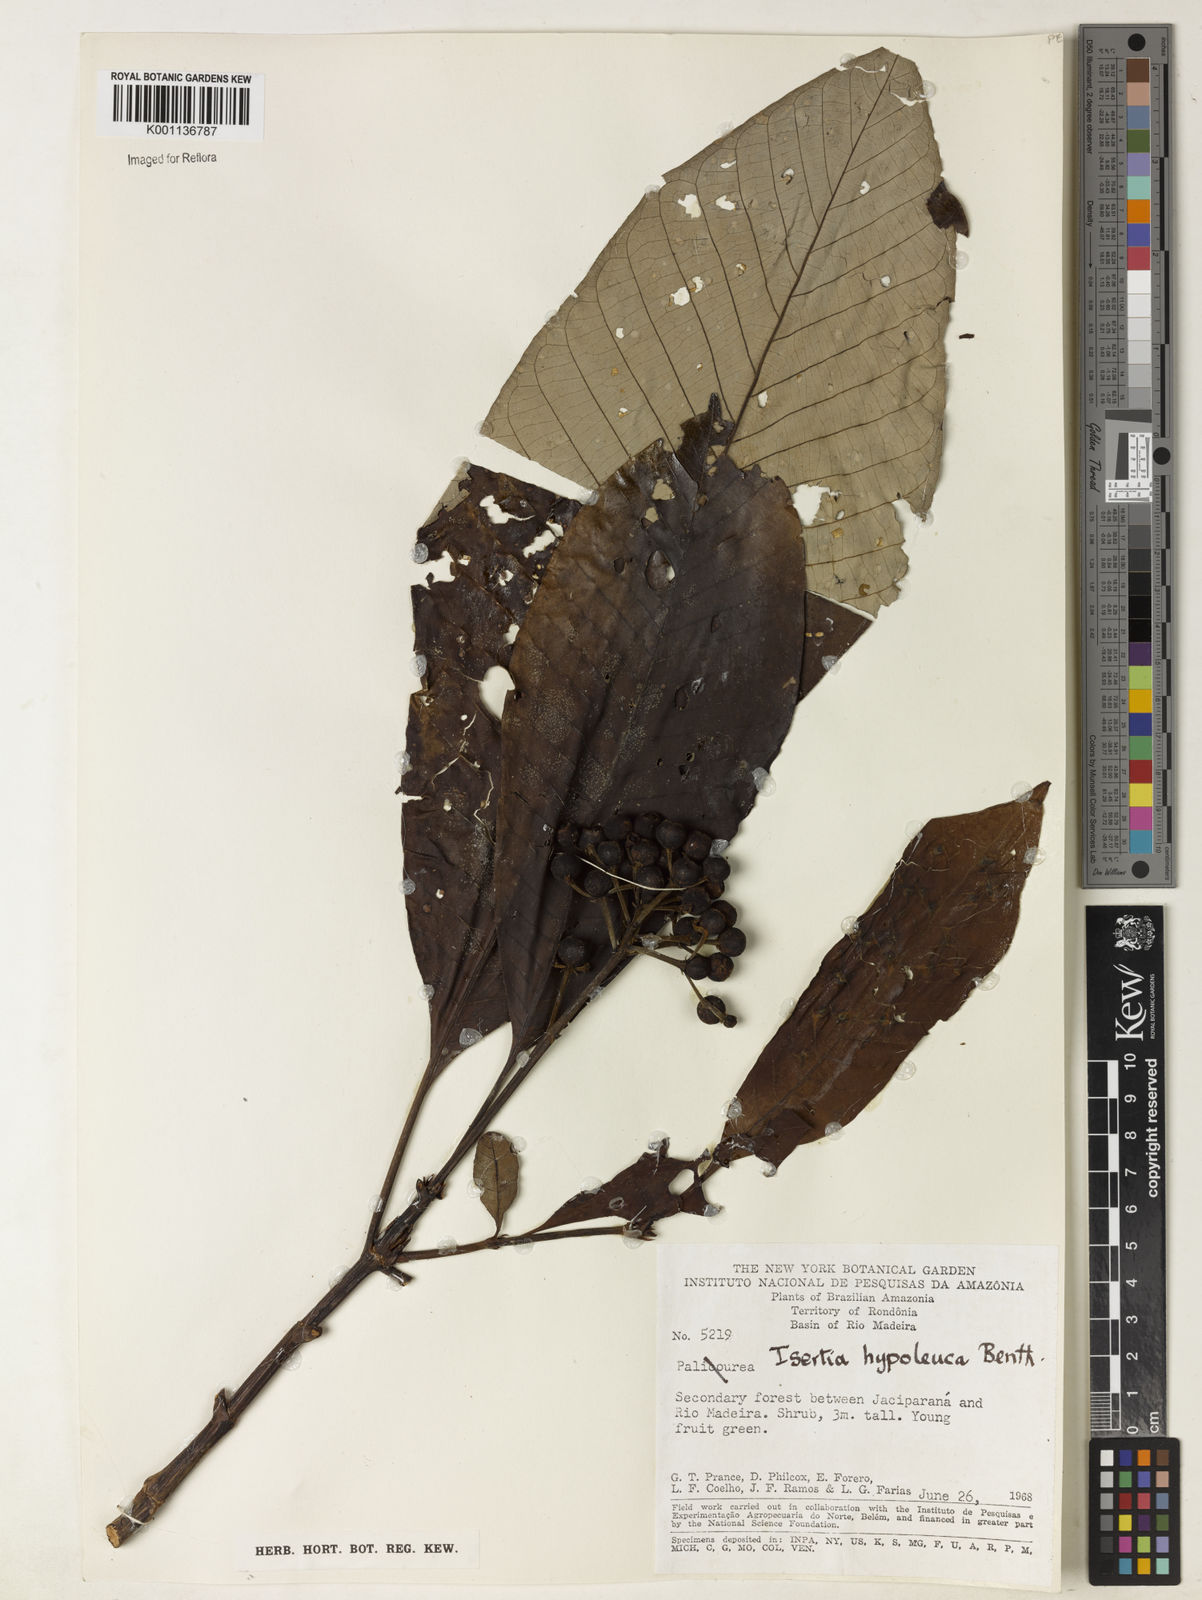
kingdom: Plantae
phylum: Tracheophyta
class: Magnoliopsida
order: Gentianales
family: Rubiaceae
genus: Isertia
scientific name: Isertia hypoleuca
